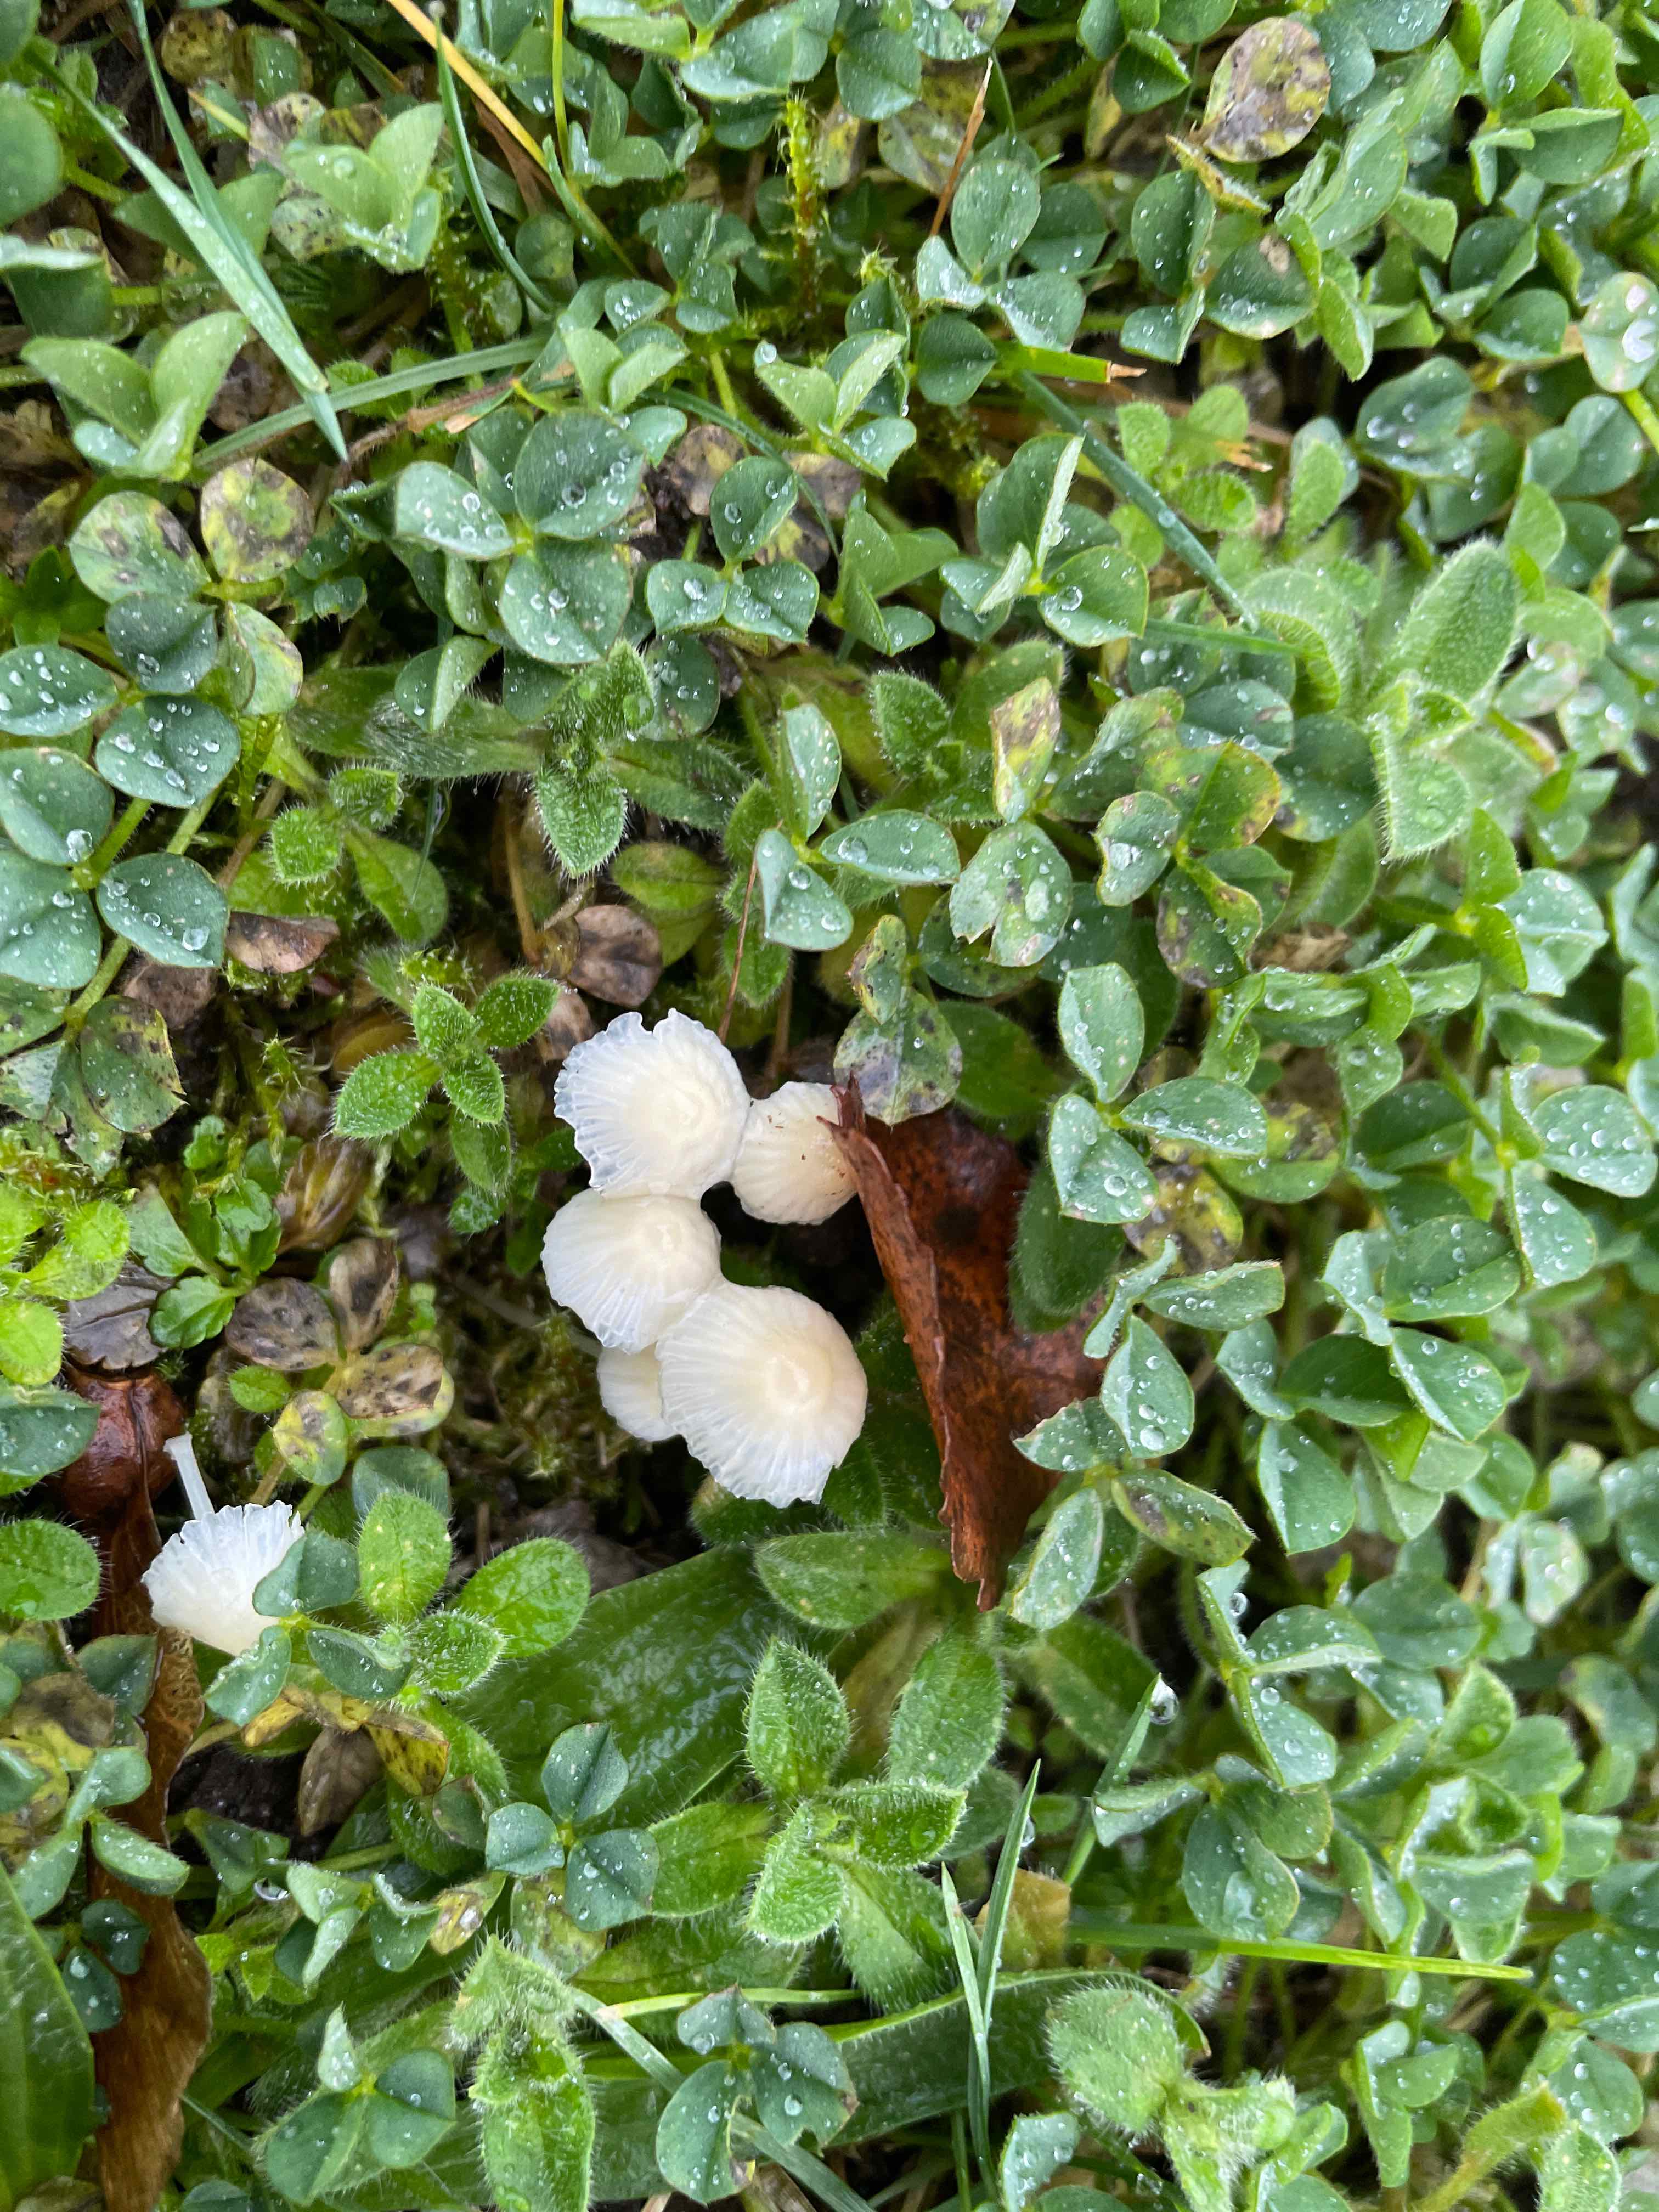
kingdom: Fungi
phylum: Basidiomycota
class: Agaricomycetes
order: Agaricales
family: Mycenaceae
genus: Atheniella
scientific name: Atheniella flavoalba
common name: gulhvid huesvamp
